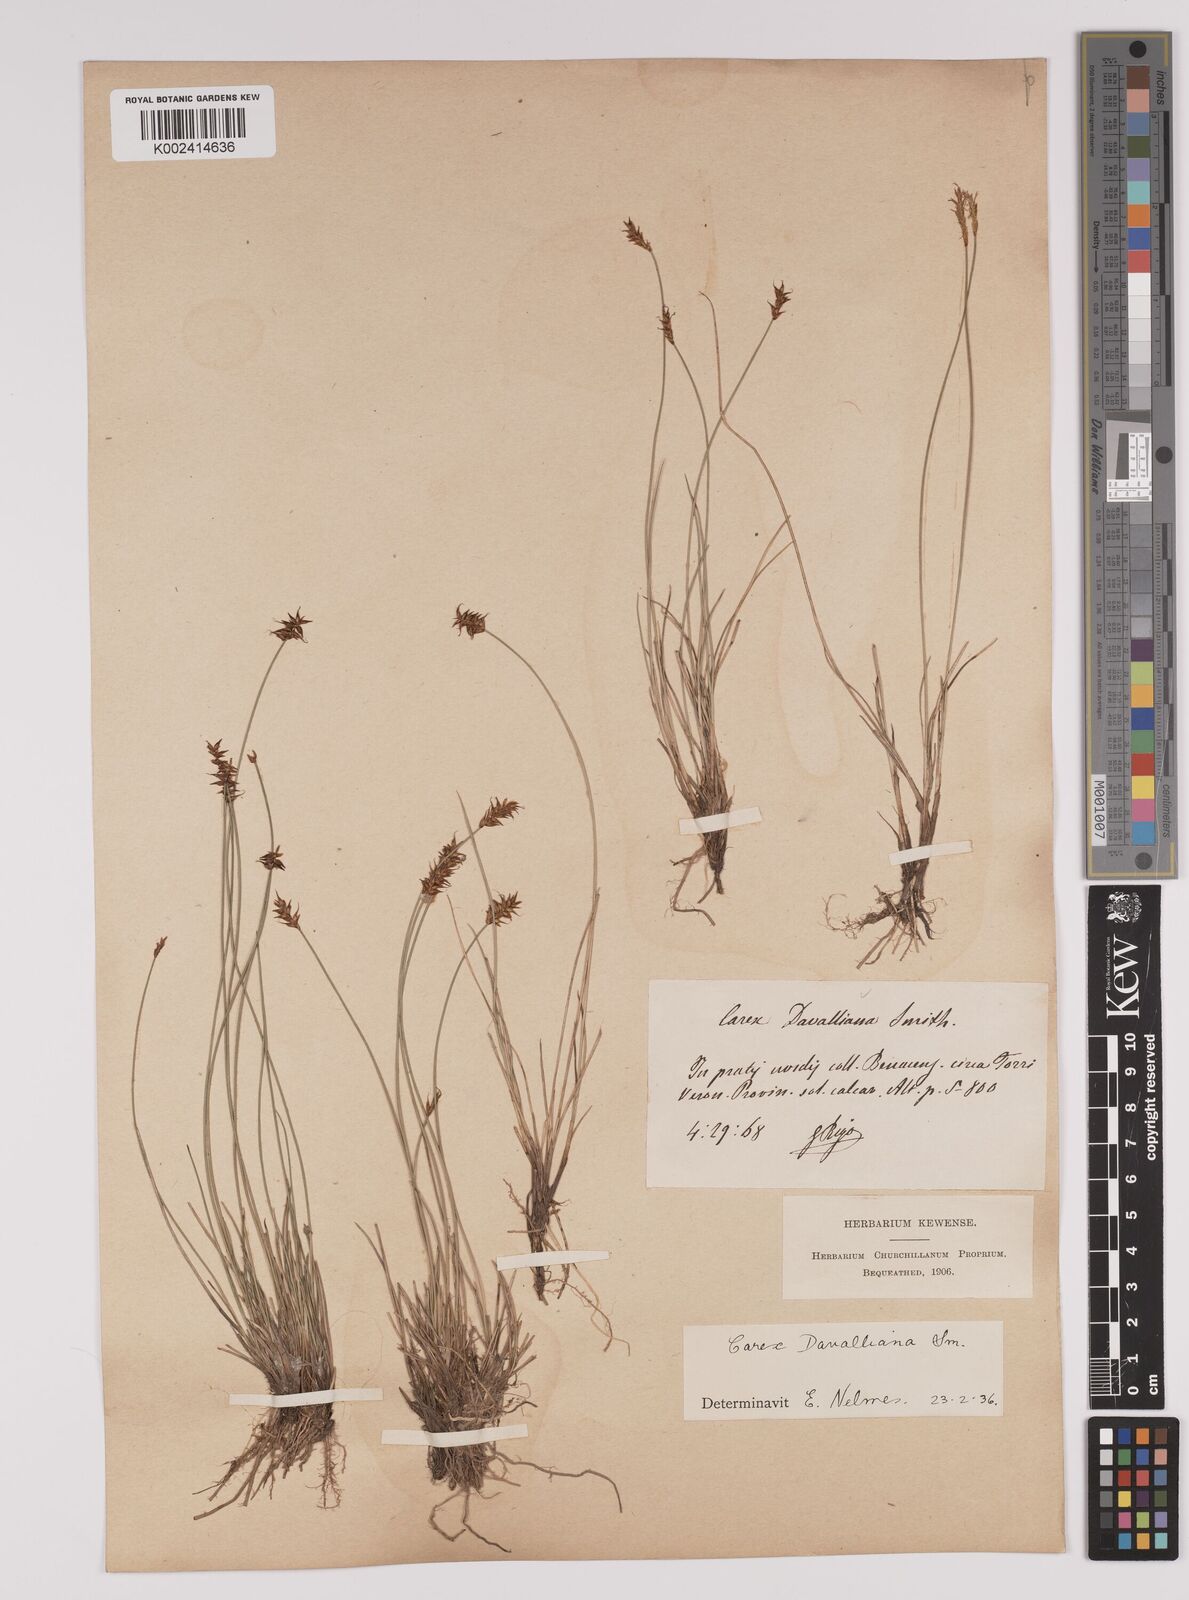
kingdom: Plantae
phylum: Tracheophyta
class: Liliopsida
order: Poales
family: Cyperaceae
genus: Carex
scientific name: Carex davalliana
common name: Davall's sedge
